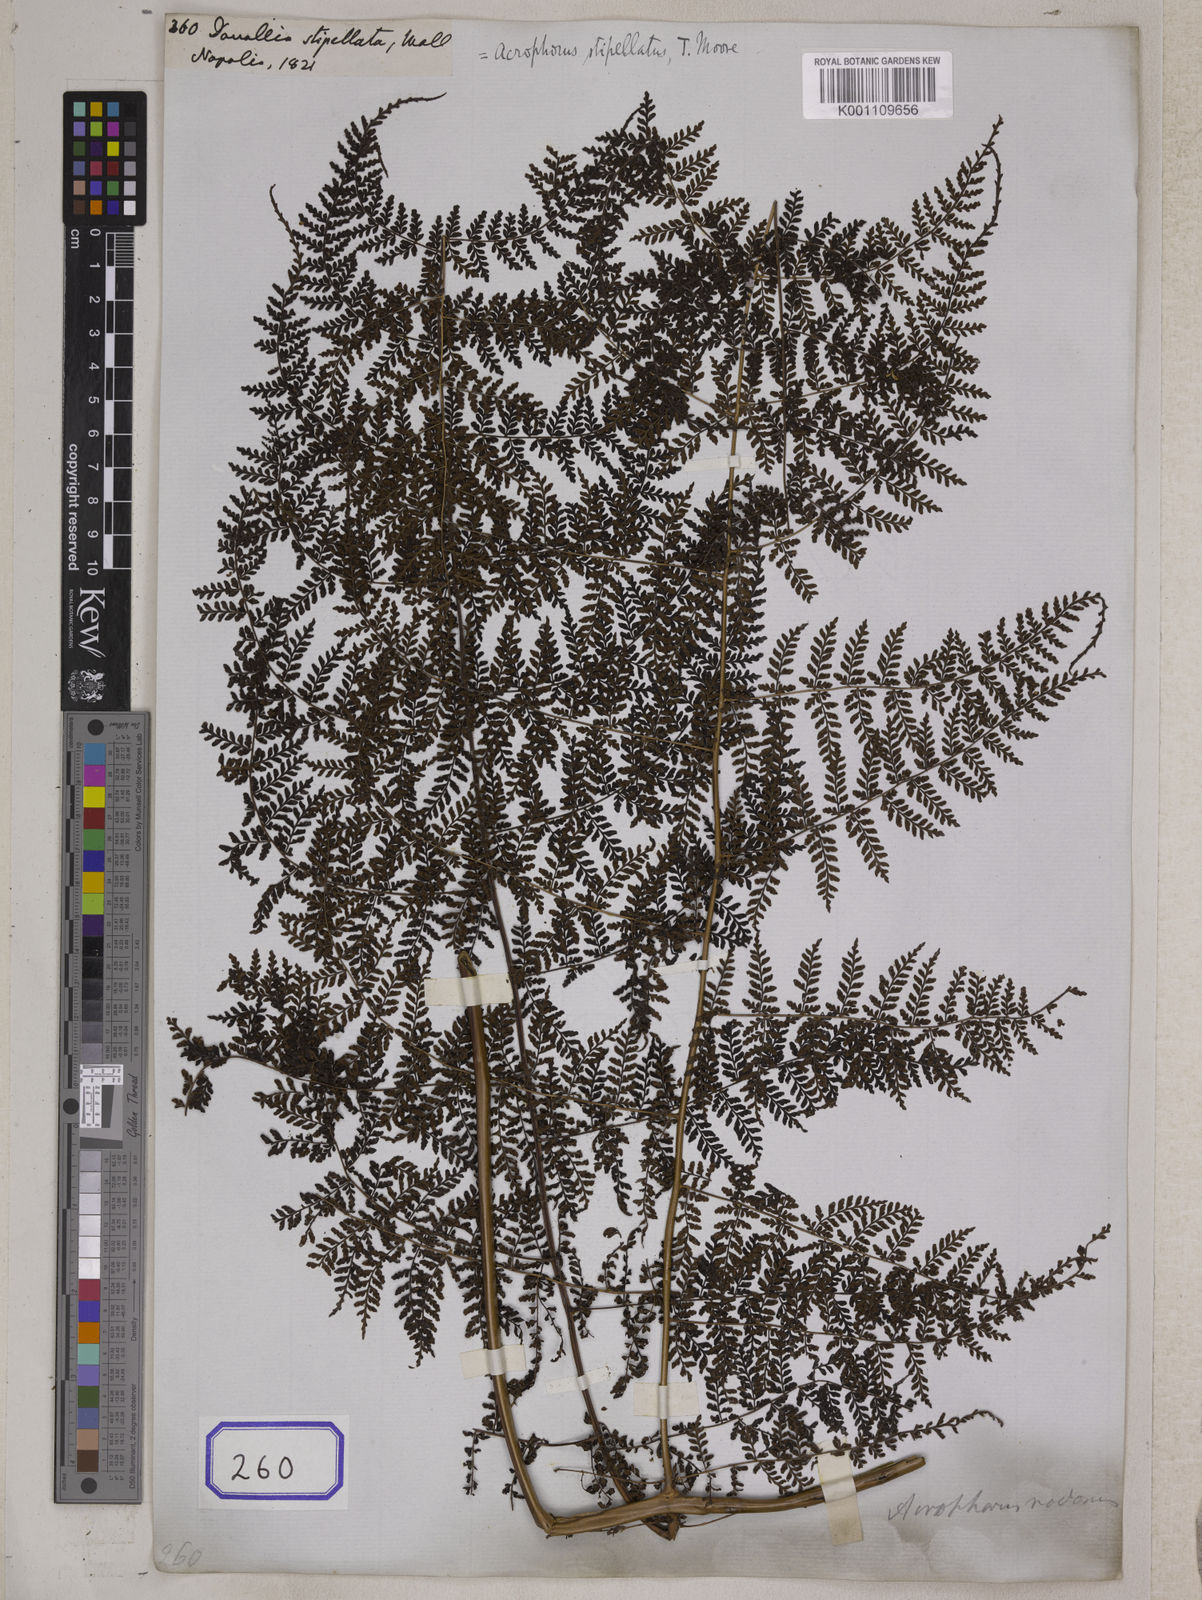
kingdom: Plantae
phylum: Tracheophyta
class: Polypodiopsida
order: Polypodiales
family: Davalliaceae
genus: Davallia
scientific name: Davallia
